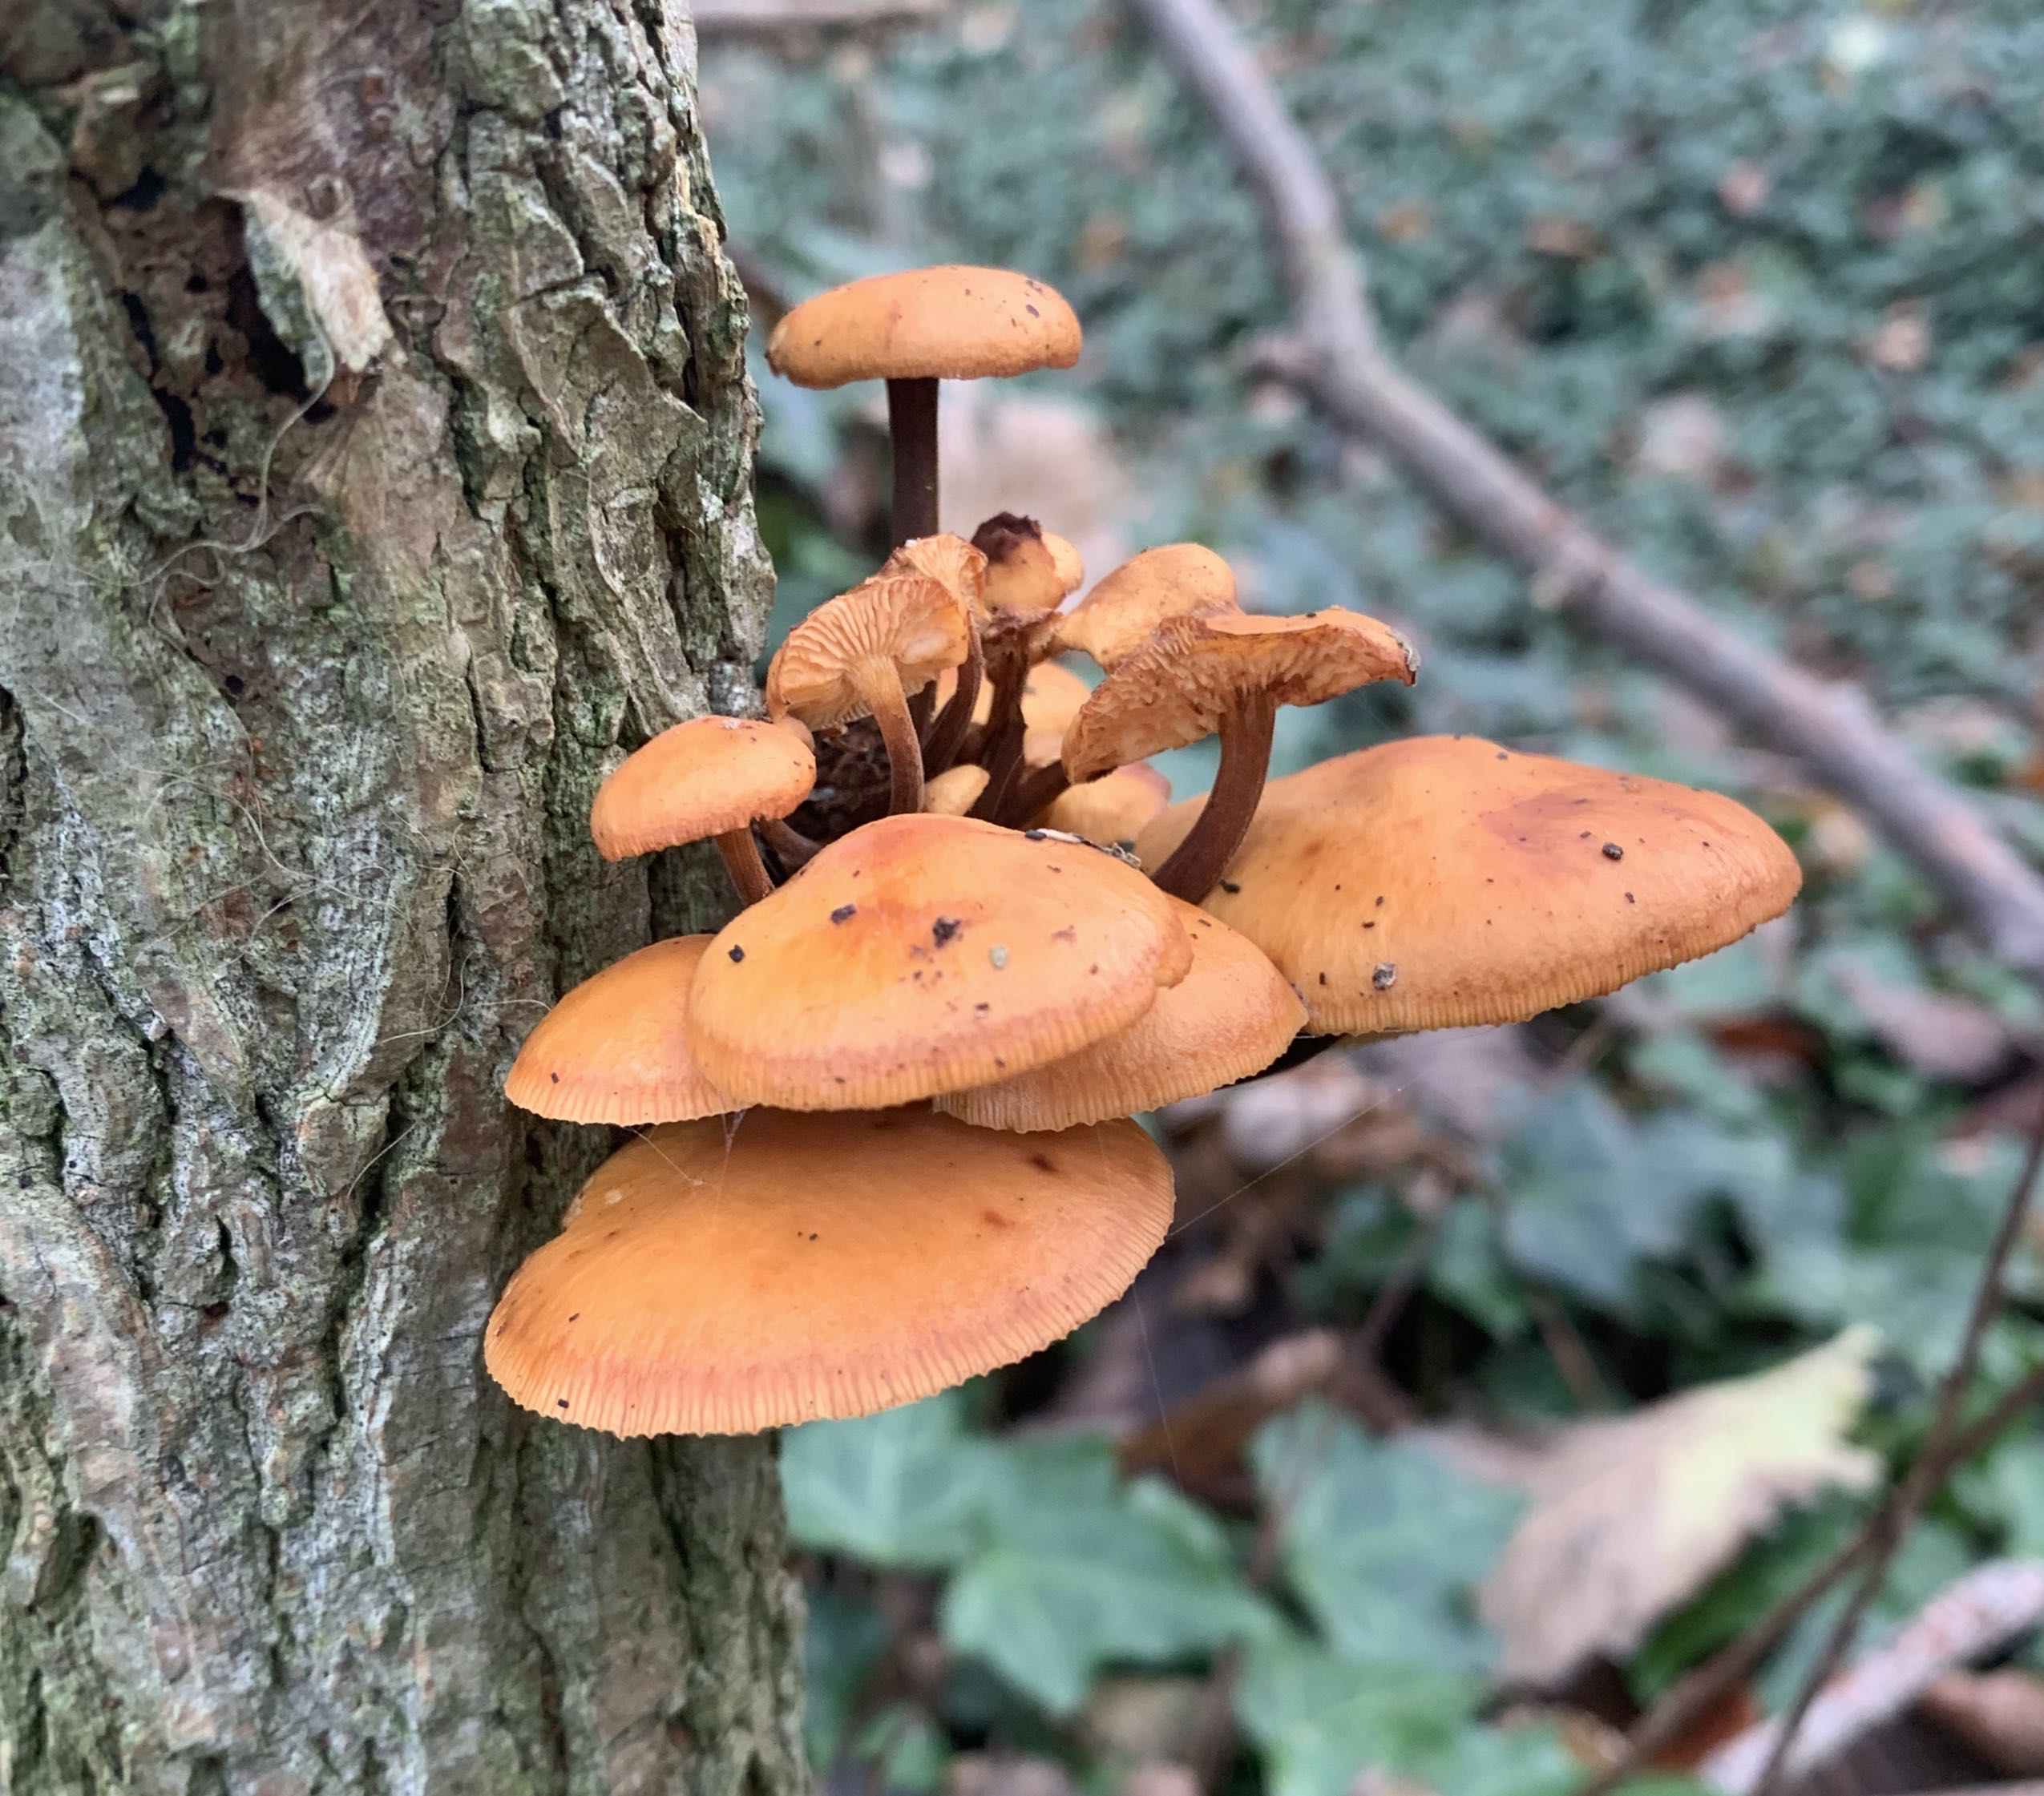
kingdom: Fungi
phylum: Basidiomycota
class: Agaricomycetes
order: Agaricales
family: Physalacriaceae
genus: Flammulina
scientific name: Flammulina
